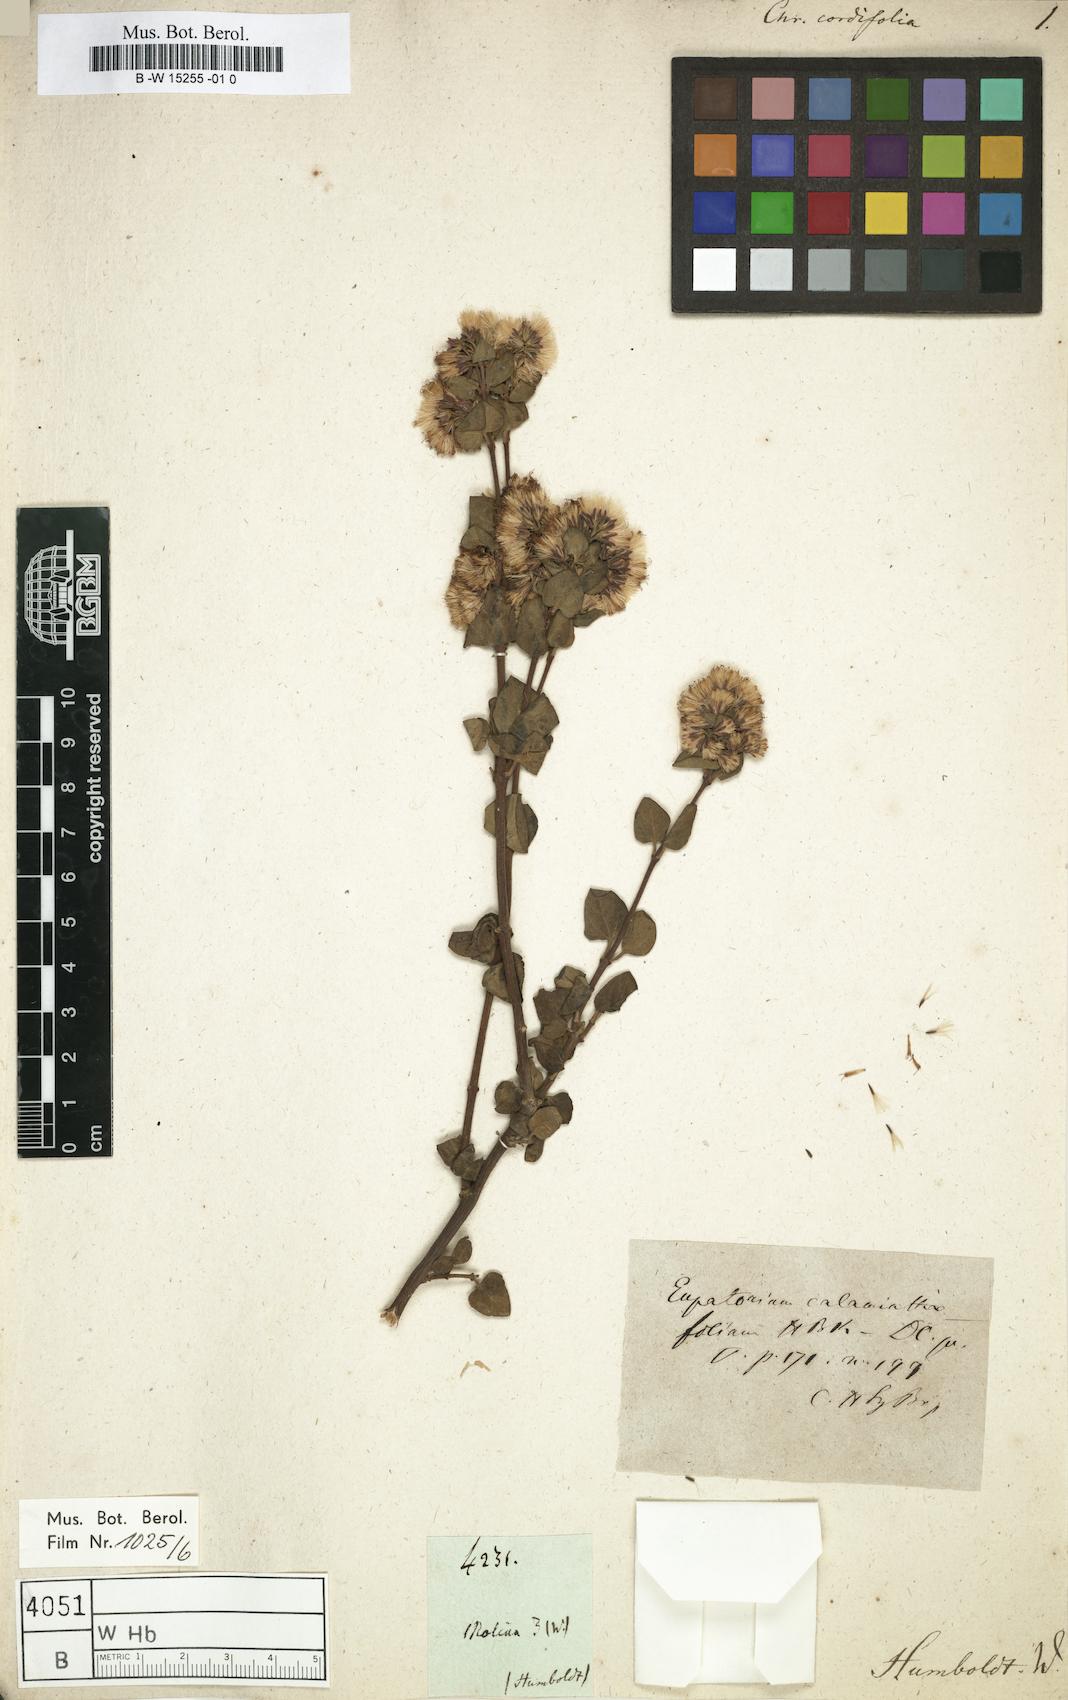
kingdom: Plantae
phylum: Tracheophyta
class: Magnoliopsida
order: Asterales
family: Asteraceae
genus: Chrysocoma
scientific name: Chrysocoma
